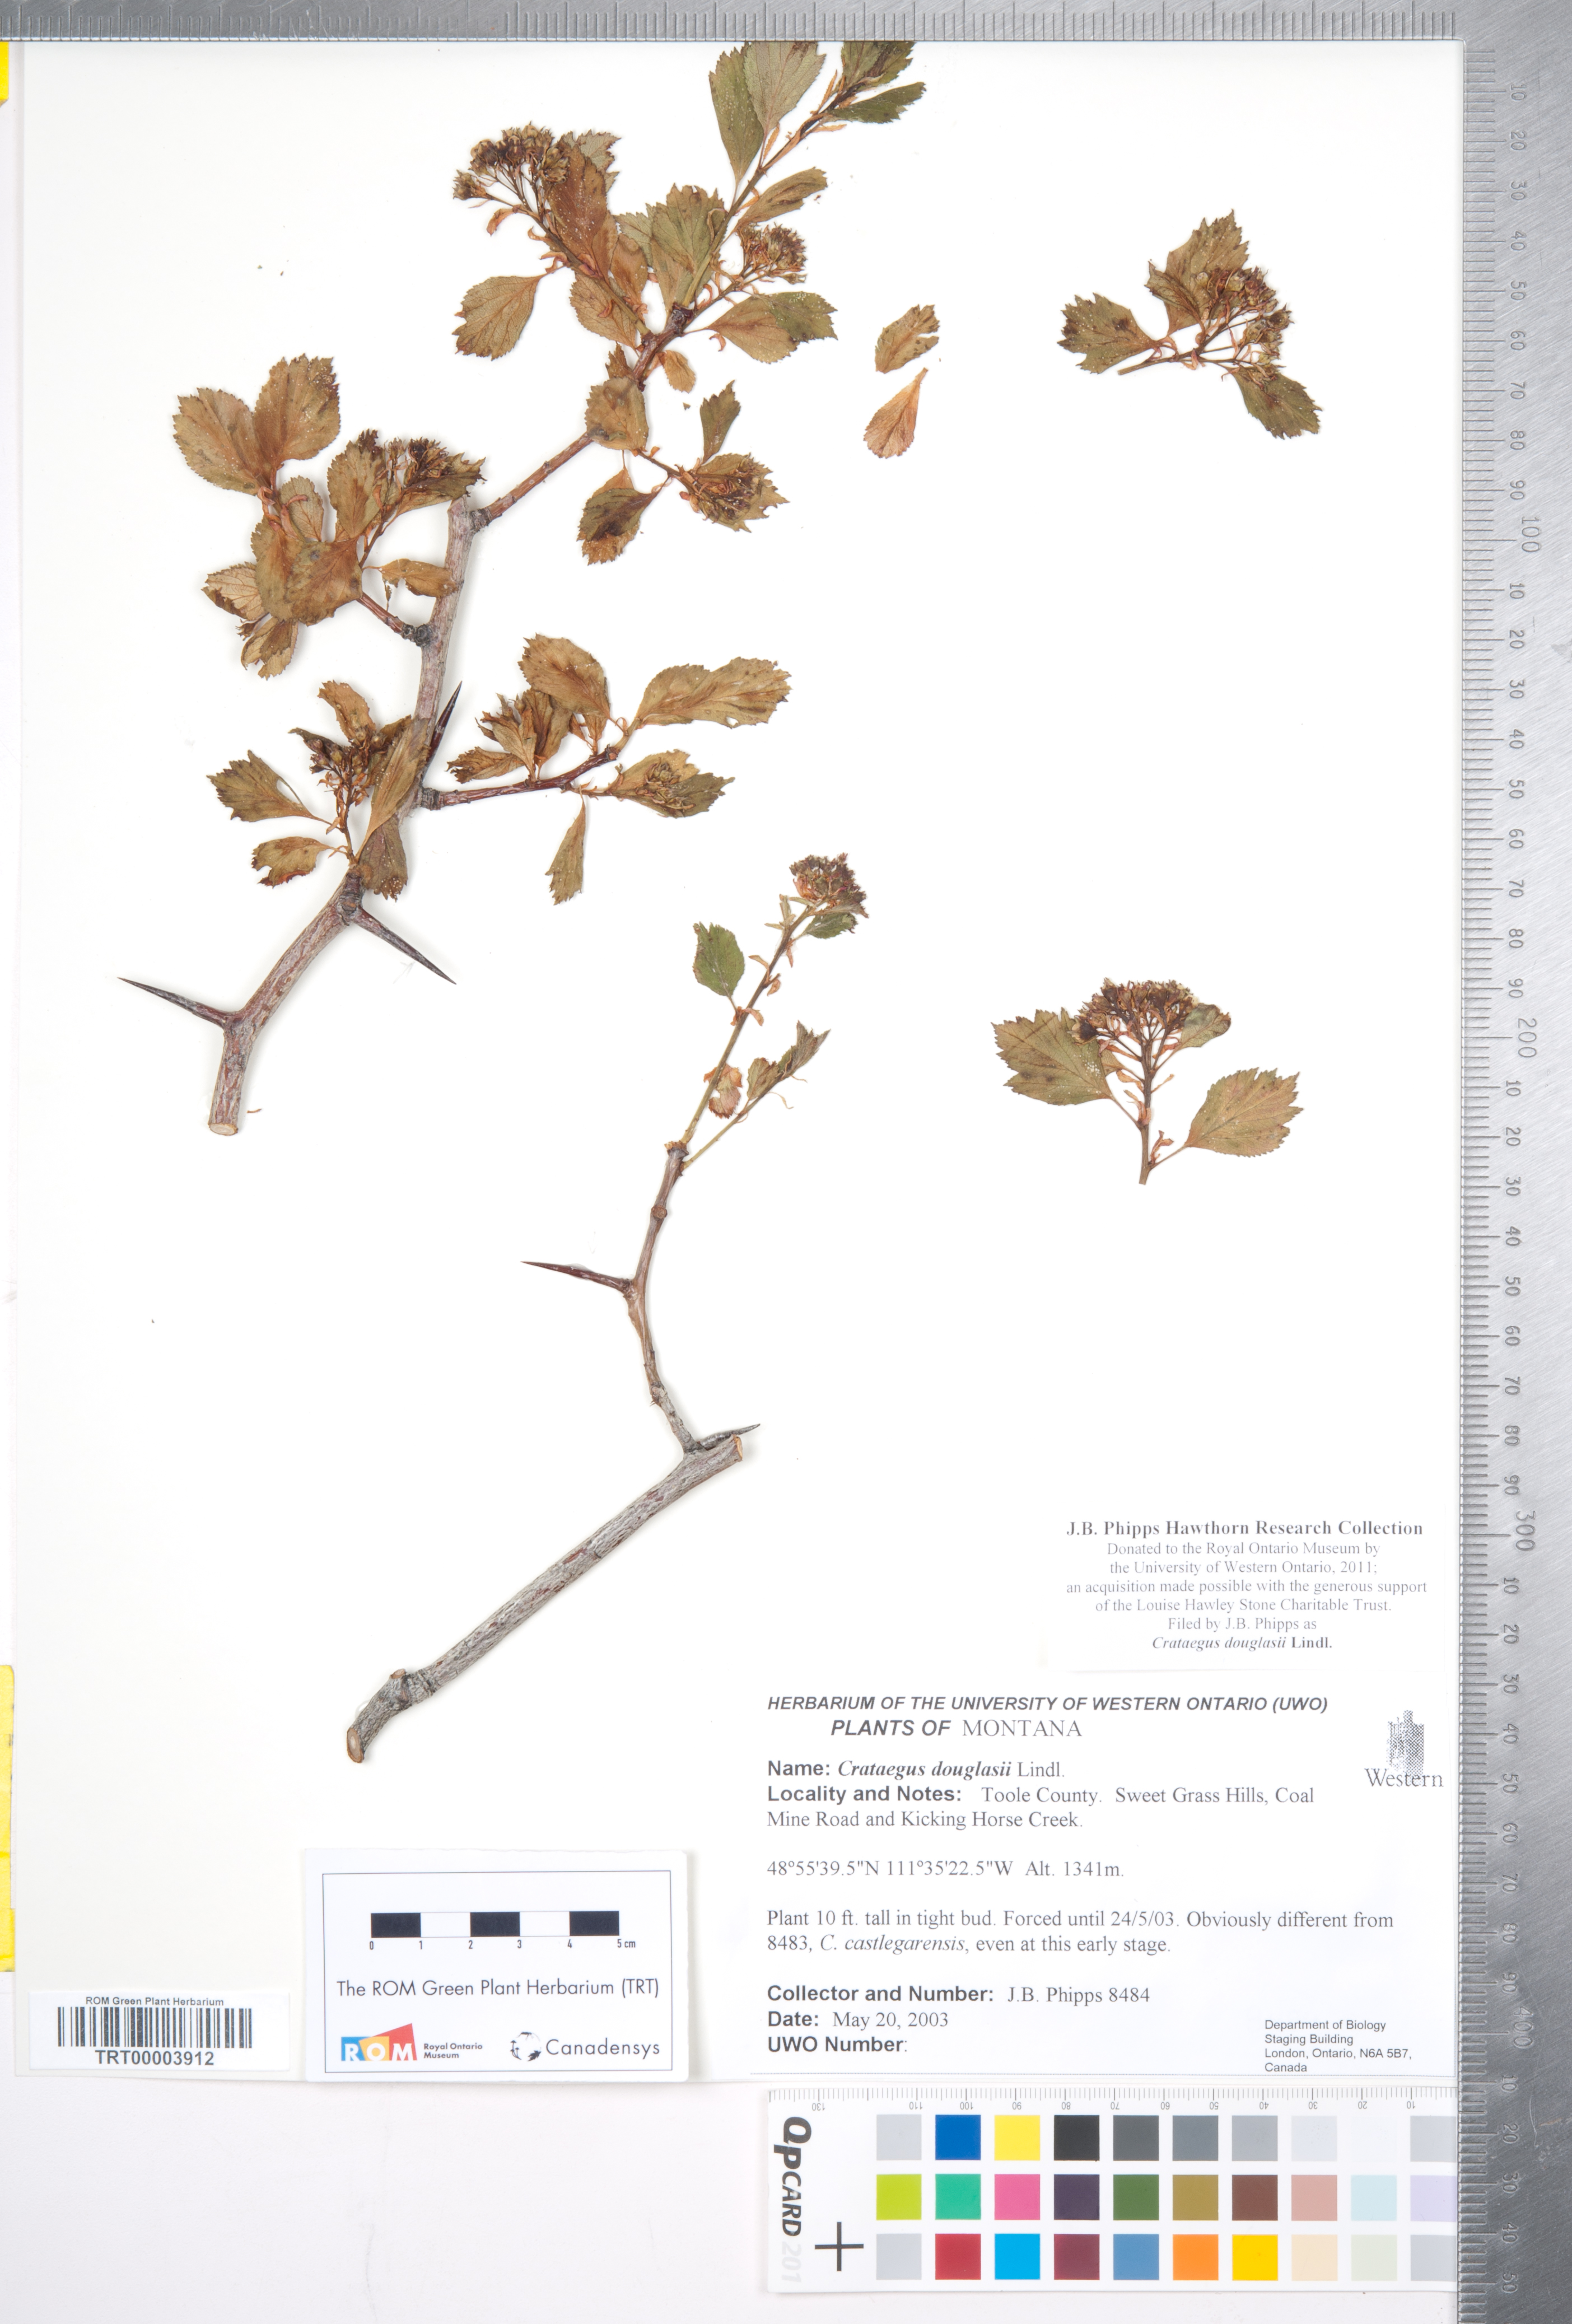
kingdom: Plantae
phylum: Tracheophyta
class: Magnoliopsida
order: Rosales
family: Rosaceae
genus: Crataegus
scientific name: Crataegus douglasii
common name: Black hawthorn
